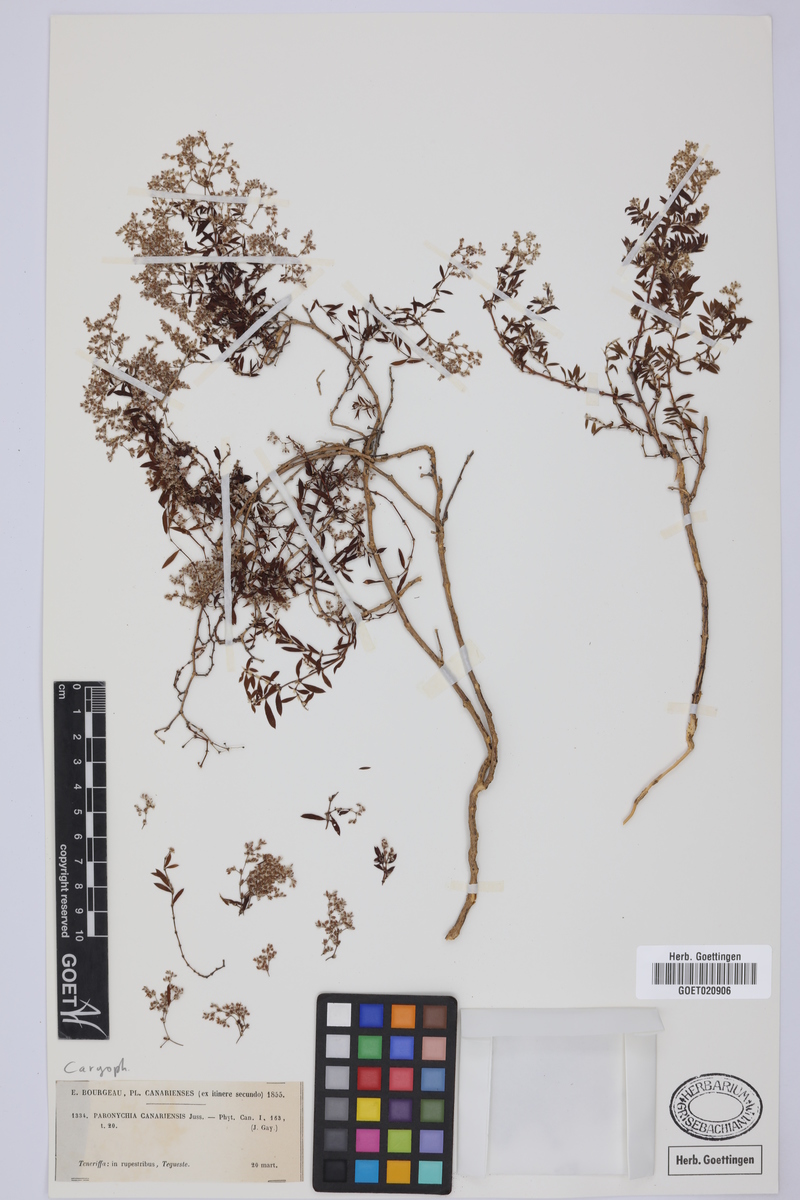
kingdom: Plantae
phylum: Tracheophyta
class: Magnoliopsida
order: Caryophyllales
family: Caryophyllaceae
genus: Paronychia
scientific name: Paronychia canariensis
